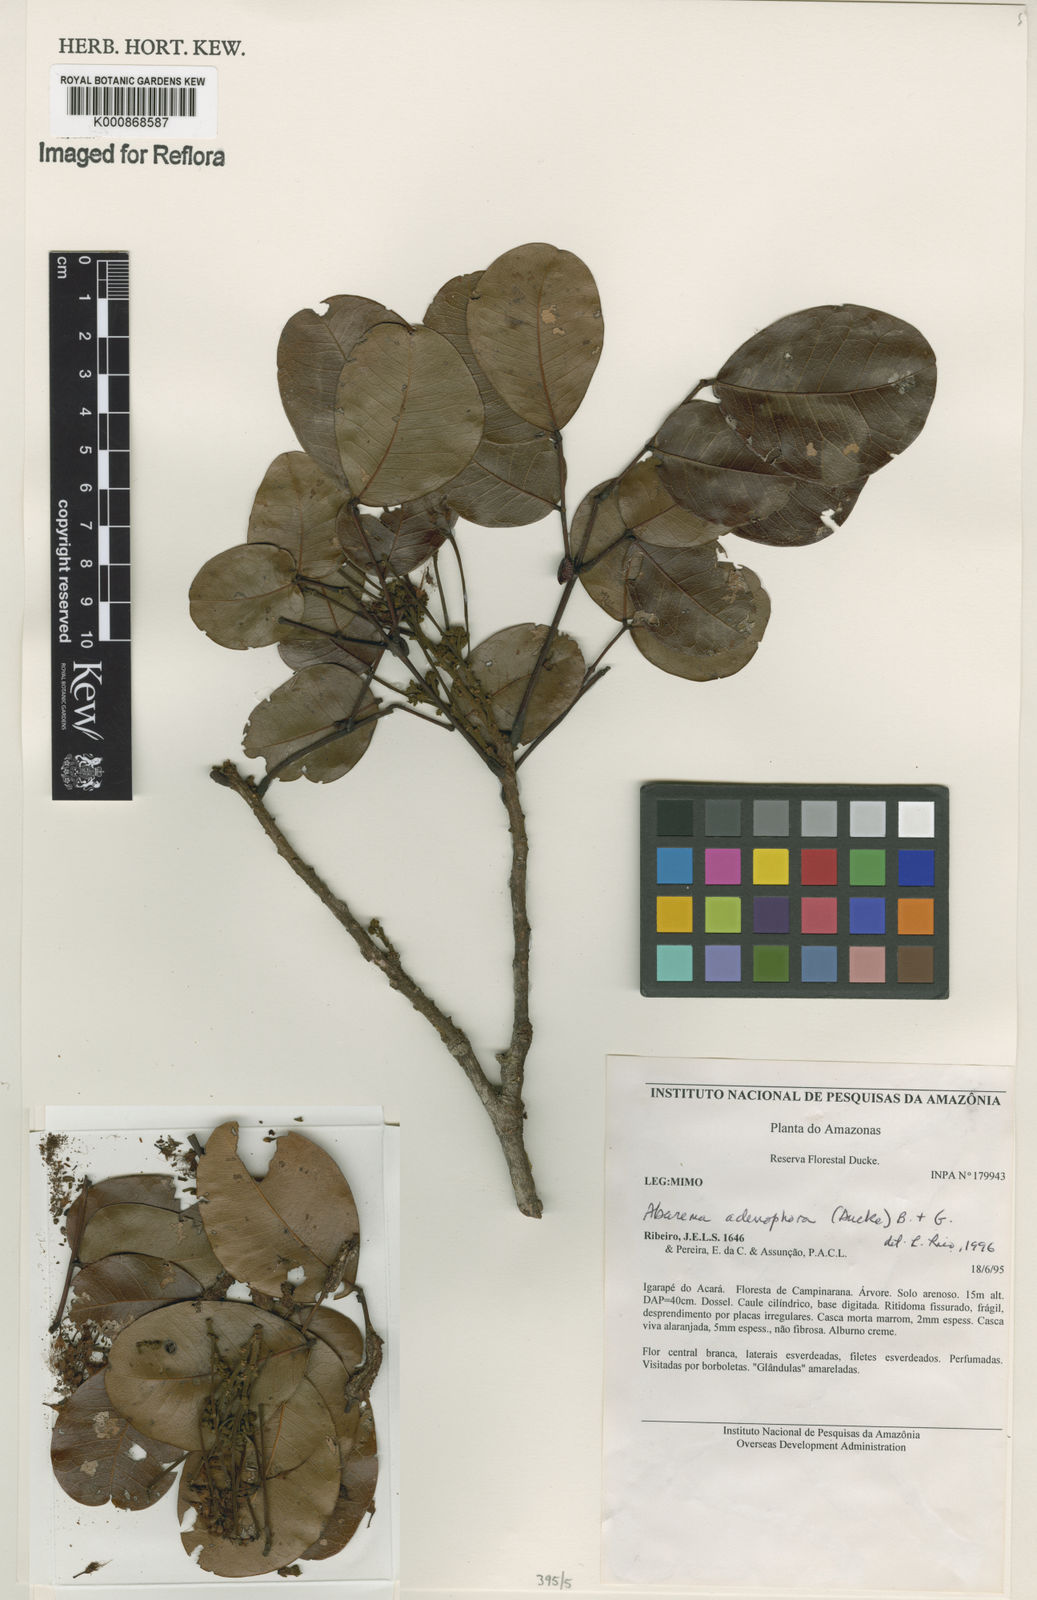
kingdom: Plantae
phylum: Tracheophyta
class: Magnoliopsida
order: Fabales
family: Fabaceae
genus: Jupunba
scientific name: Jupunba adenophora
